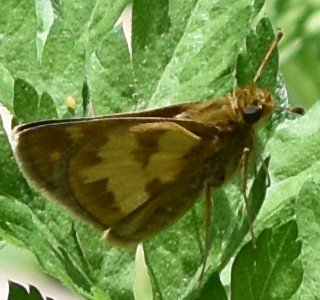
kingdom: Animalia
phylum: Arthropoda
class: Insecta
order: Lepidoptera
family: Hesperiidae
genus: Polites
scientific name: Polites coras
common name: Peck's Skipper
